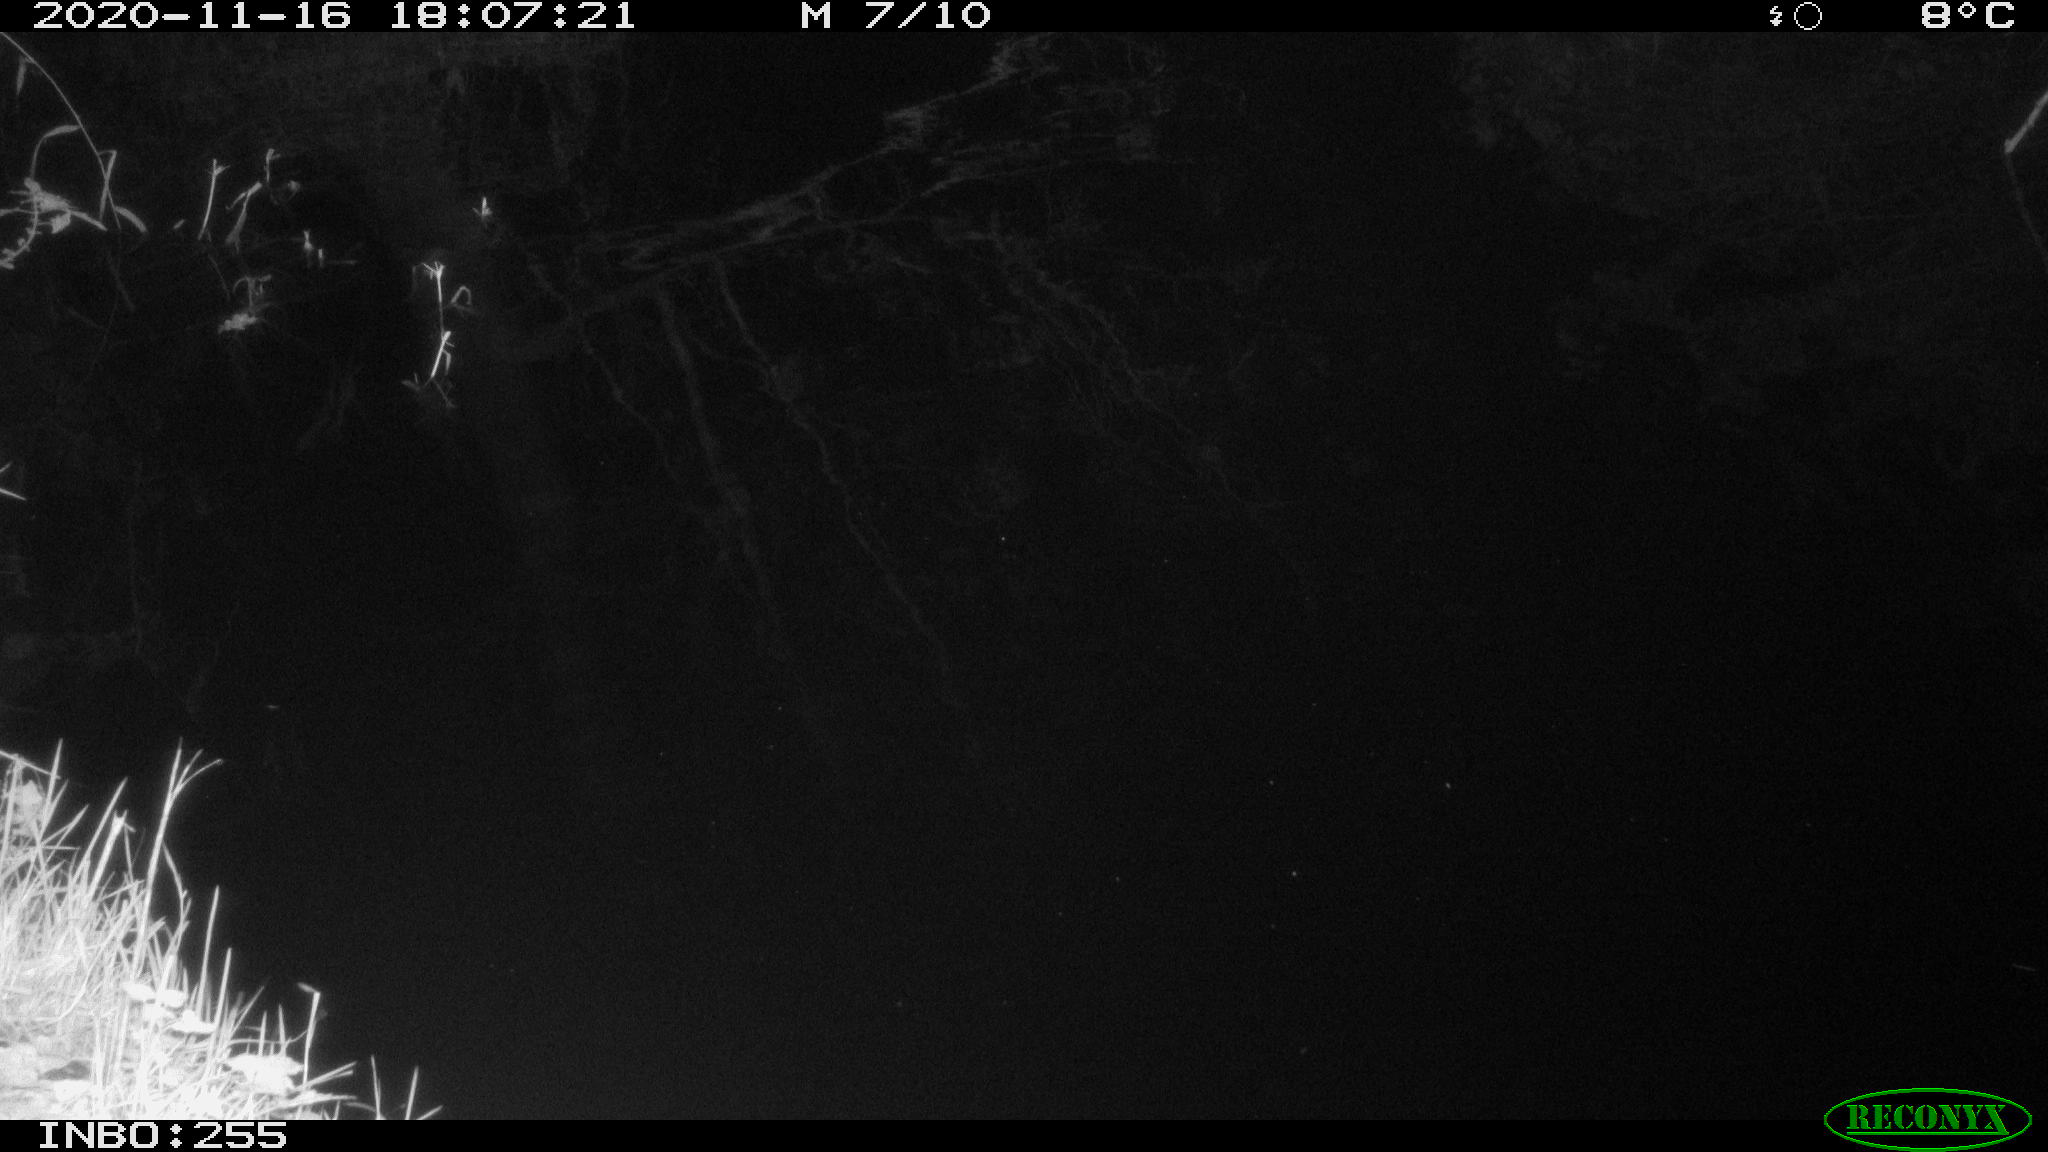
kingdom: Animalia
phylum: Chordata
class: Mammalia
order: Rodentia
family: Muridae
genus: Rattus
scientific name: Rattus norvegicus
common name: Brown rat
